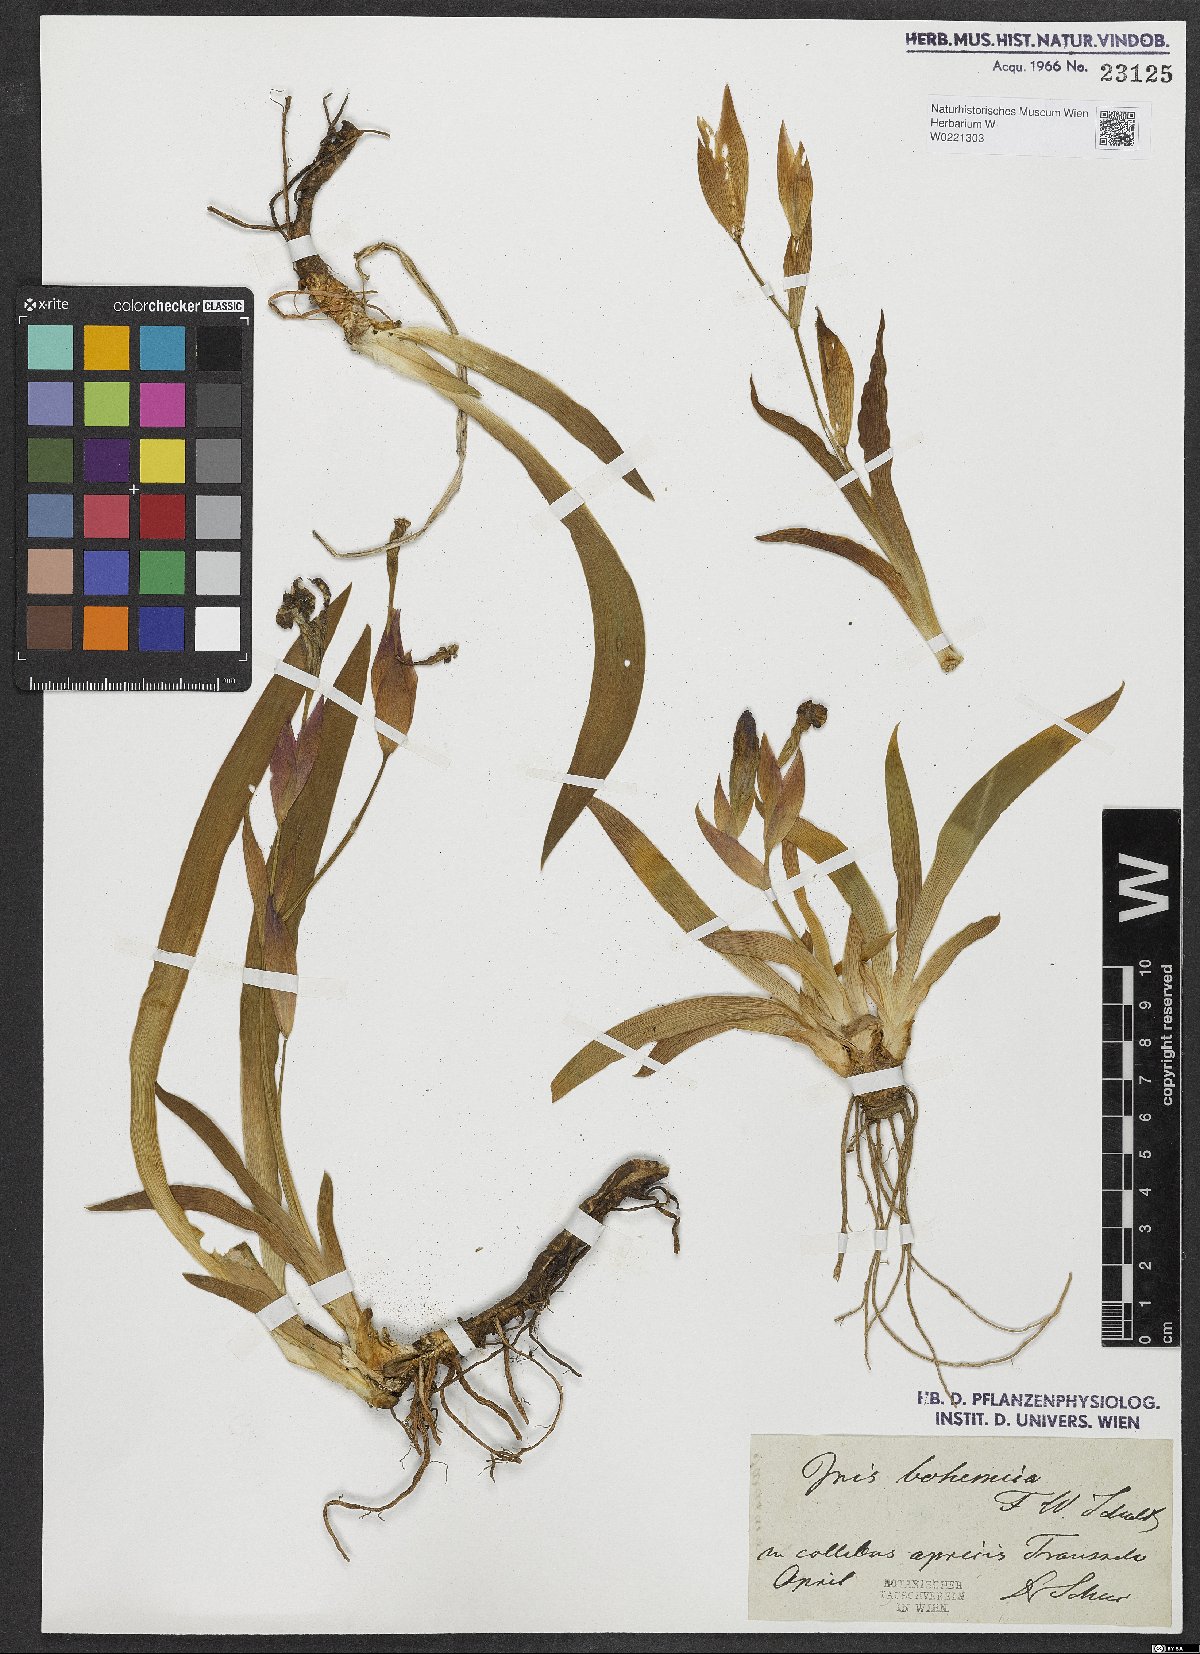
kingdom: Plantae
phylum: Tracheophyta
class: Liliopsida
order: Asparagales
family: Iridaceae
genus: Iris
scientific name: Iris aphylla
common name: Stool iris
